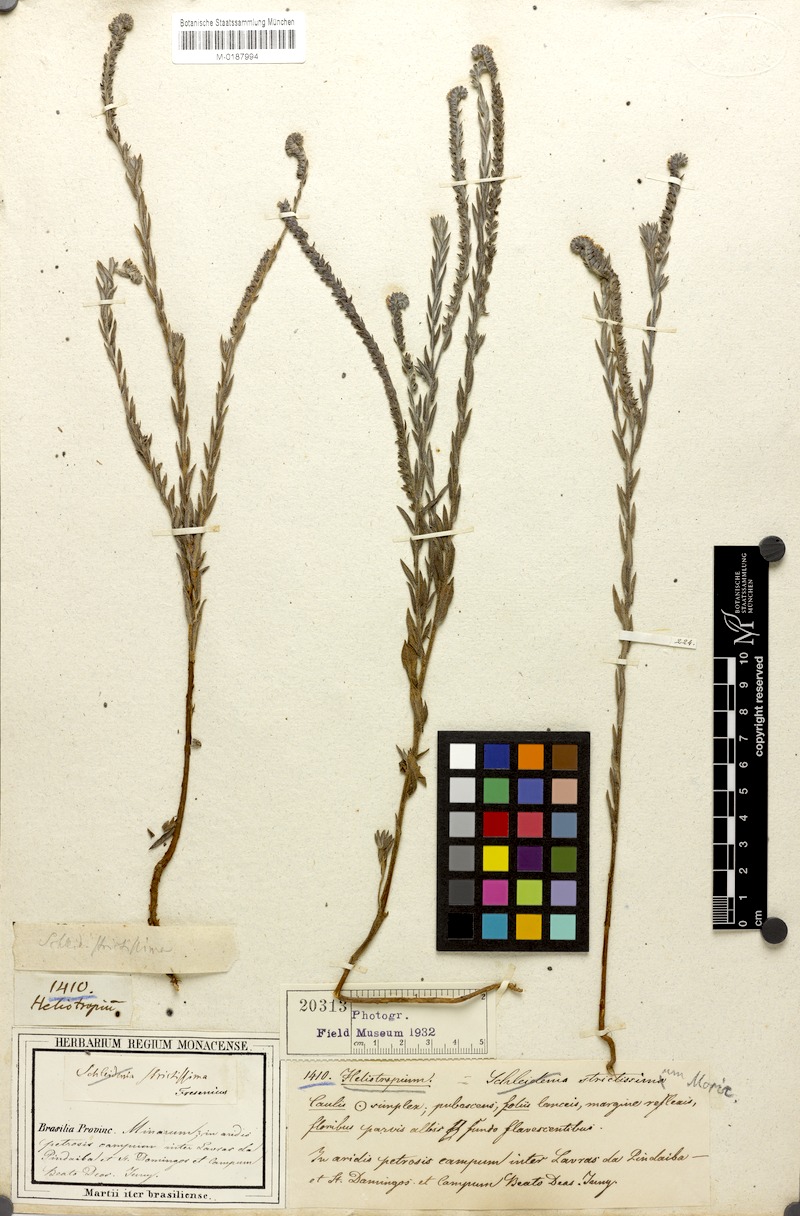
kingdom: Plantae
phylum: Tracheophyta
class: Magnoliopsida
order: Boraginales
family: Heliotropiaceae
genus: Euploca
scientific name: Euploca salicoides
